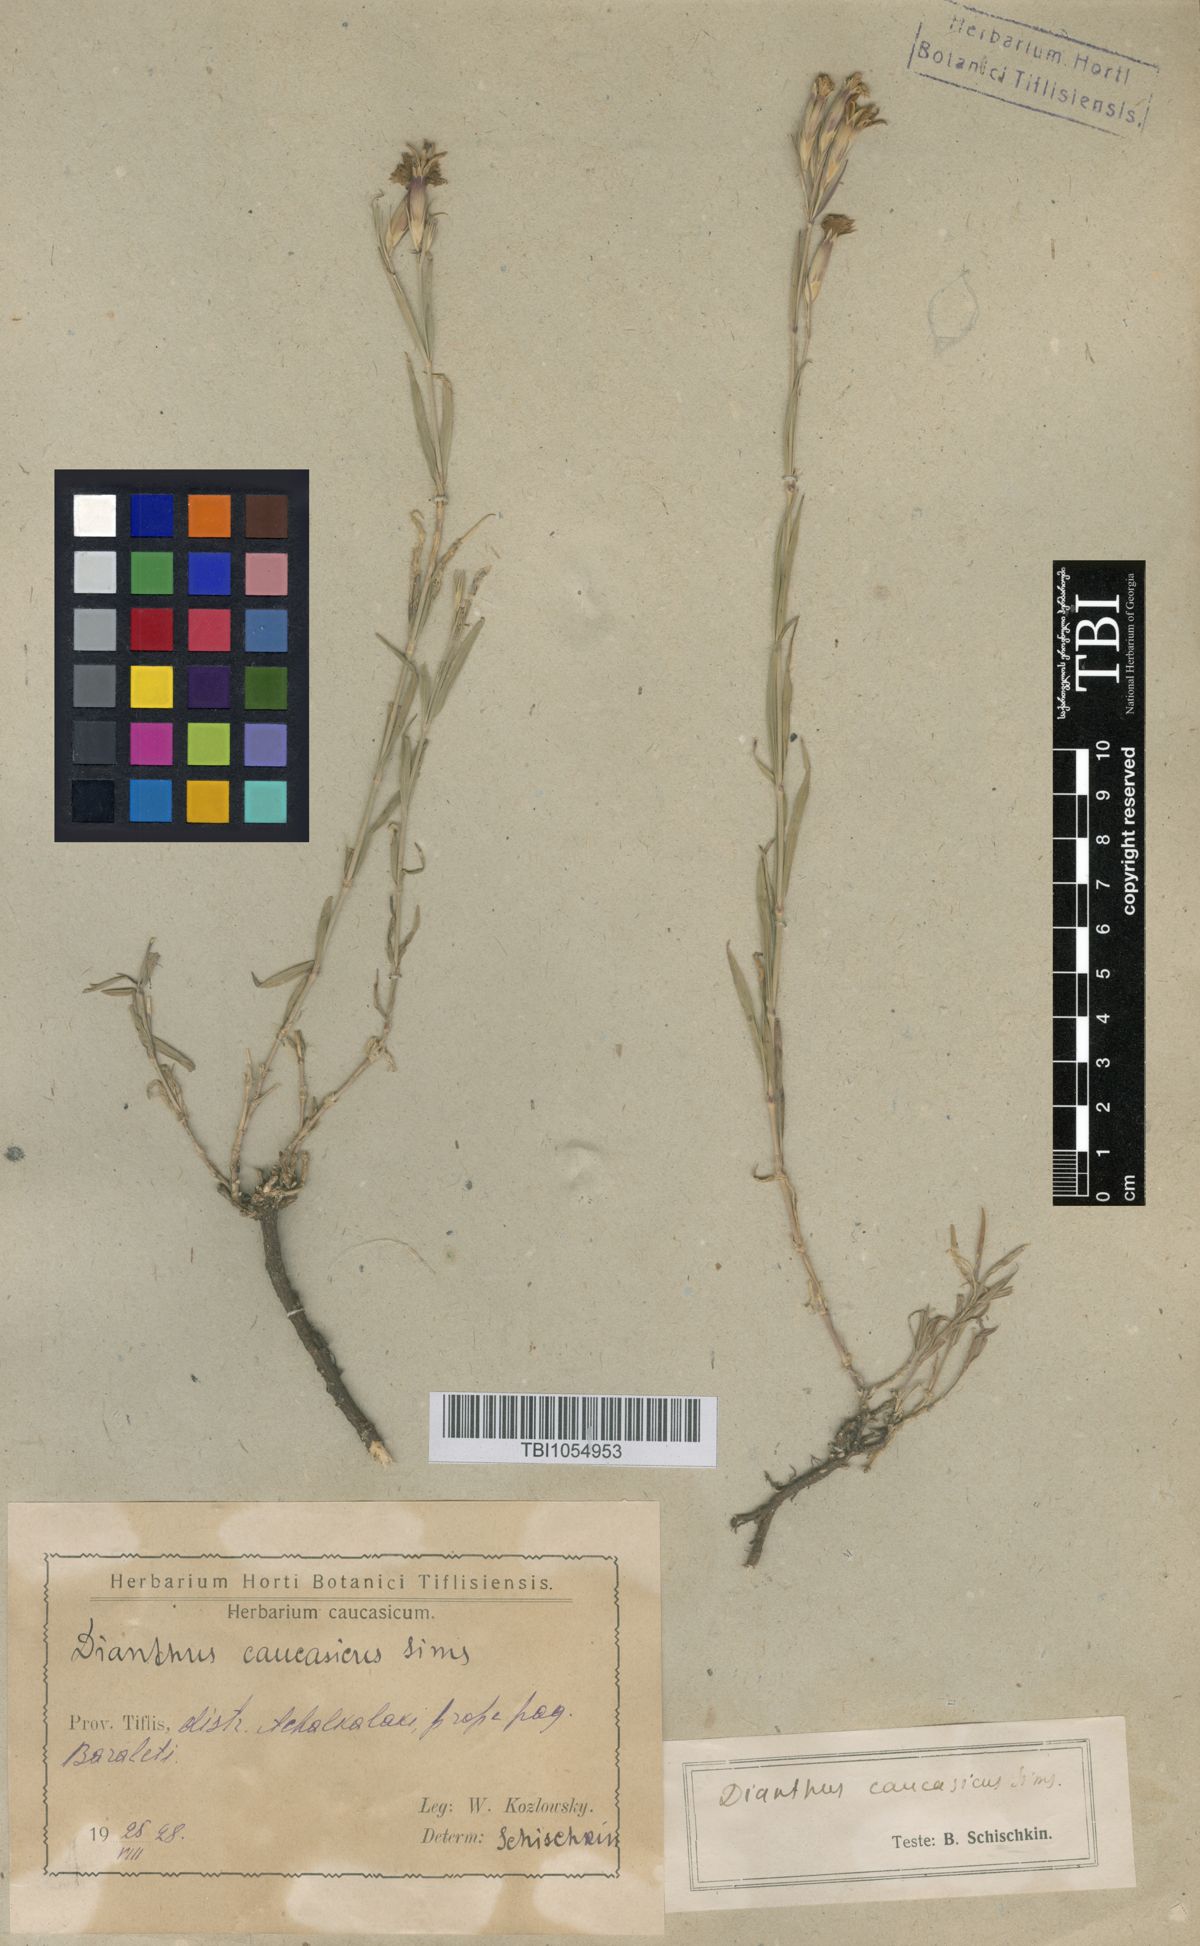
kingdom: Plantae
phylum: Tracheophyta
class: Magnoliopsida
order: Caryophyllales
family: Caryophyllaceae
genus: Dianthus
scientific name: Dianthus caucaseus
